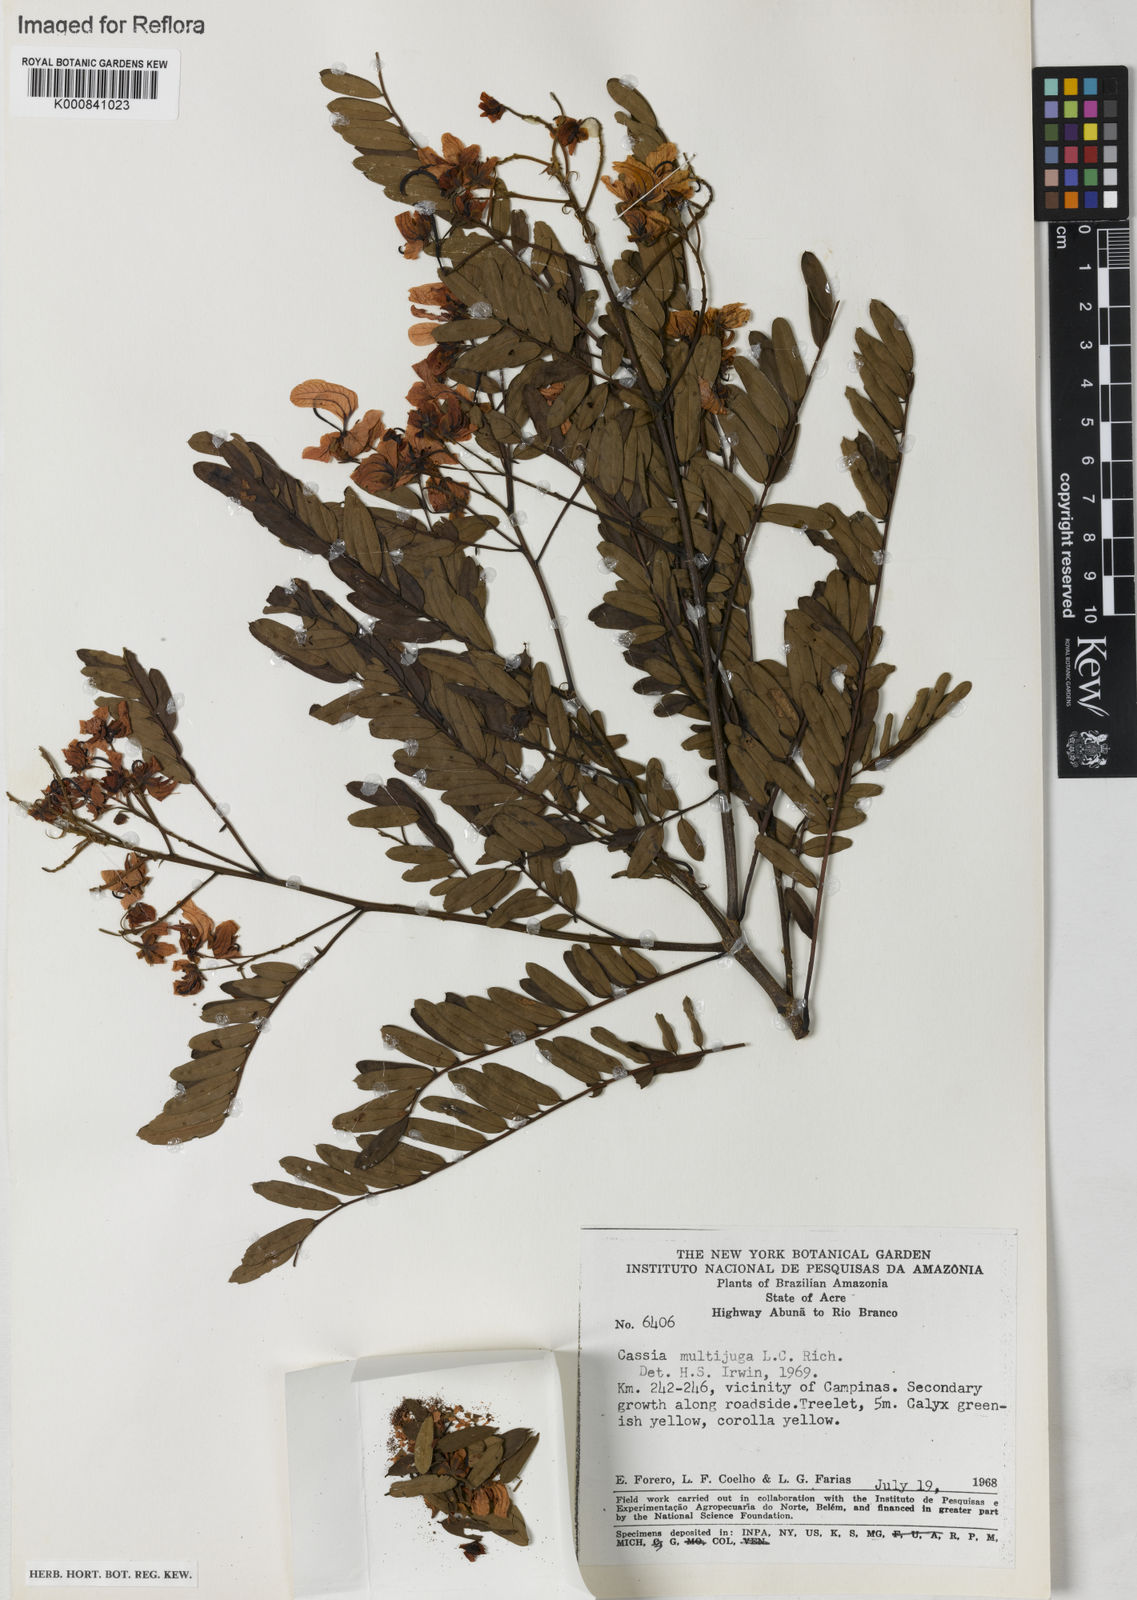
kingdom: Plantae
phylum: Tracheophyta
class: Magnoliopsida
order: Fabales
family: Fabaceae
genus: Senna
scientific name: Senna multijuga
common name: False sicklepod
